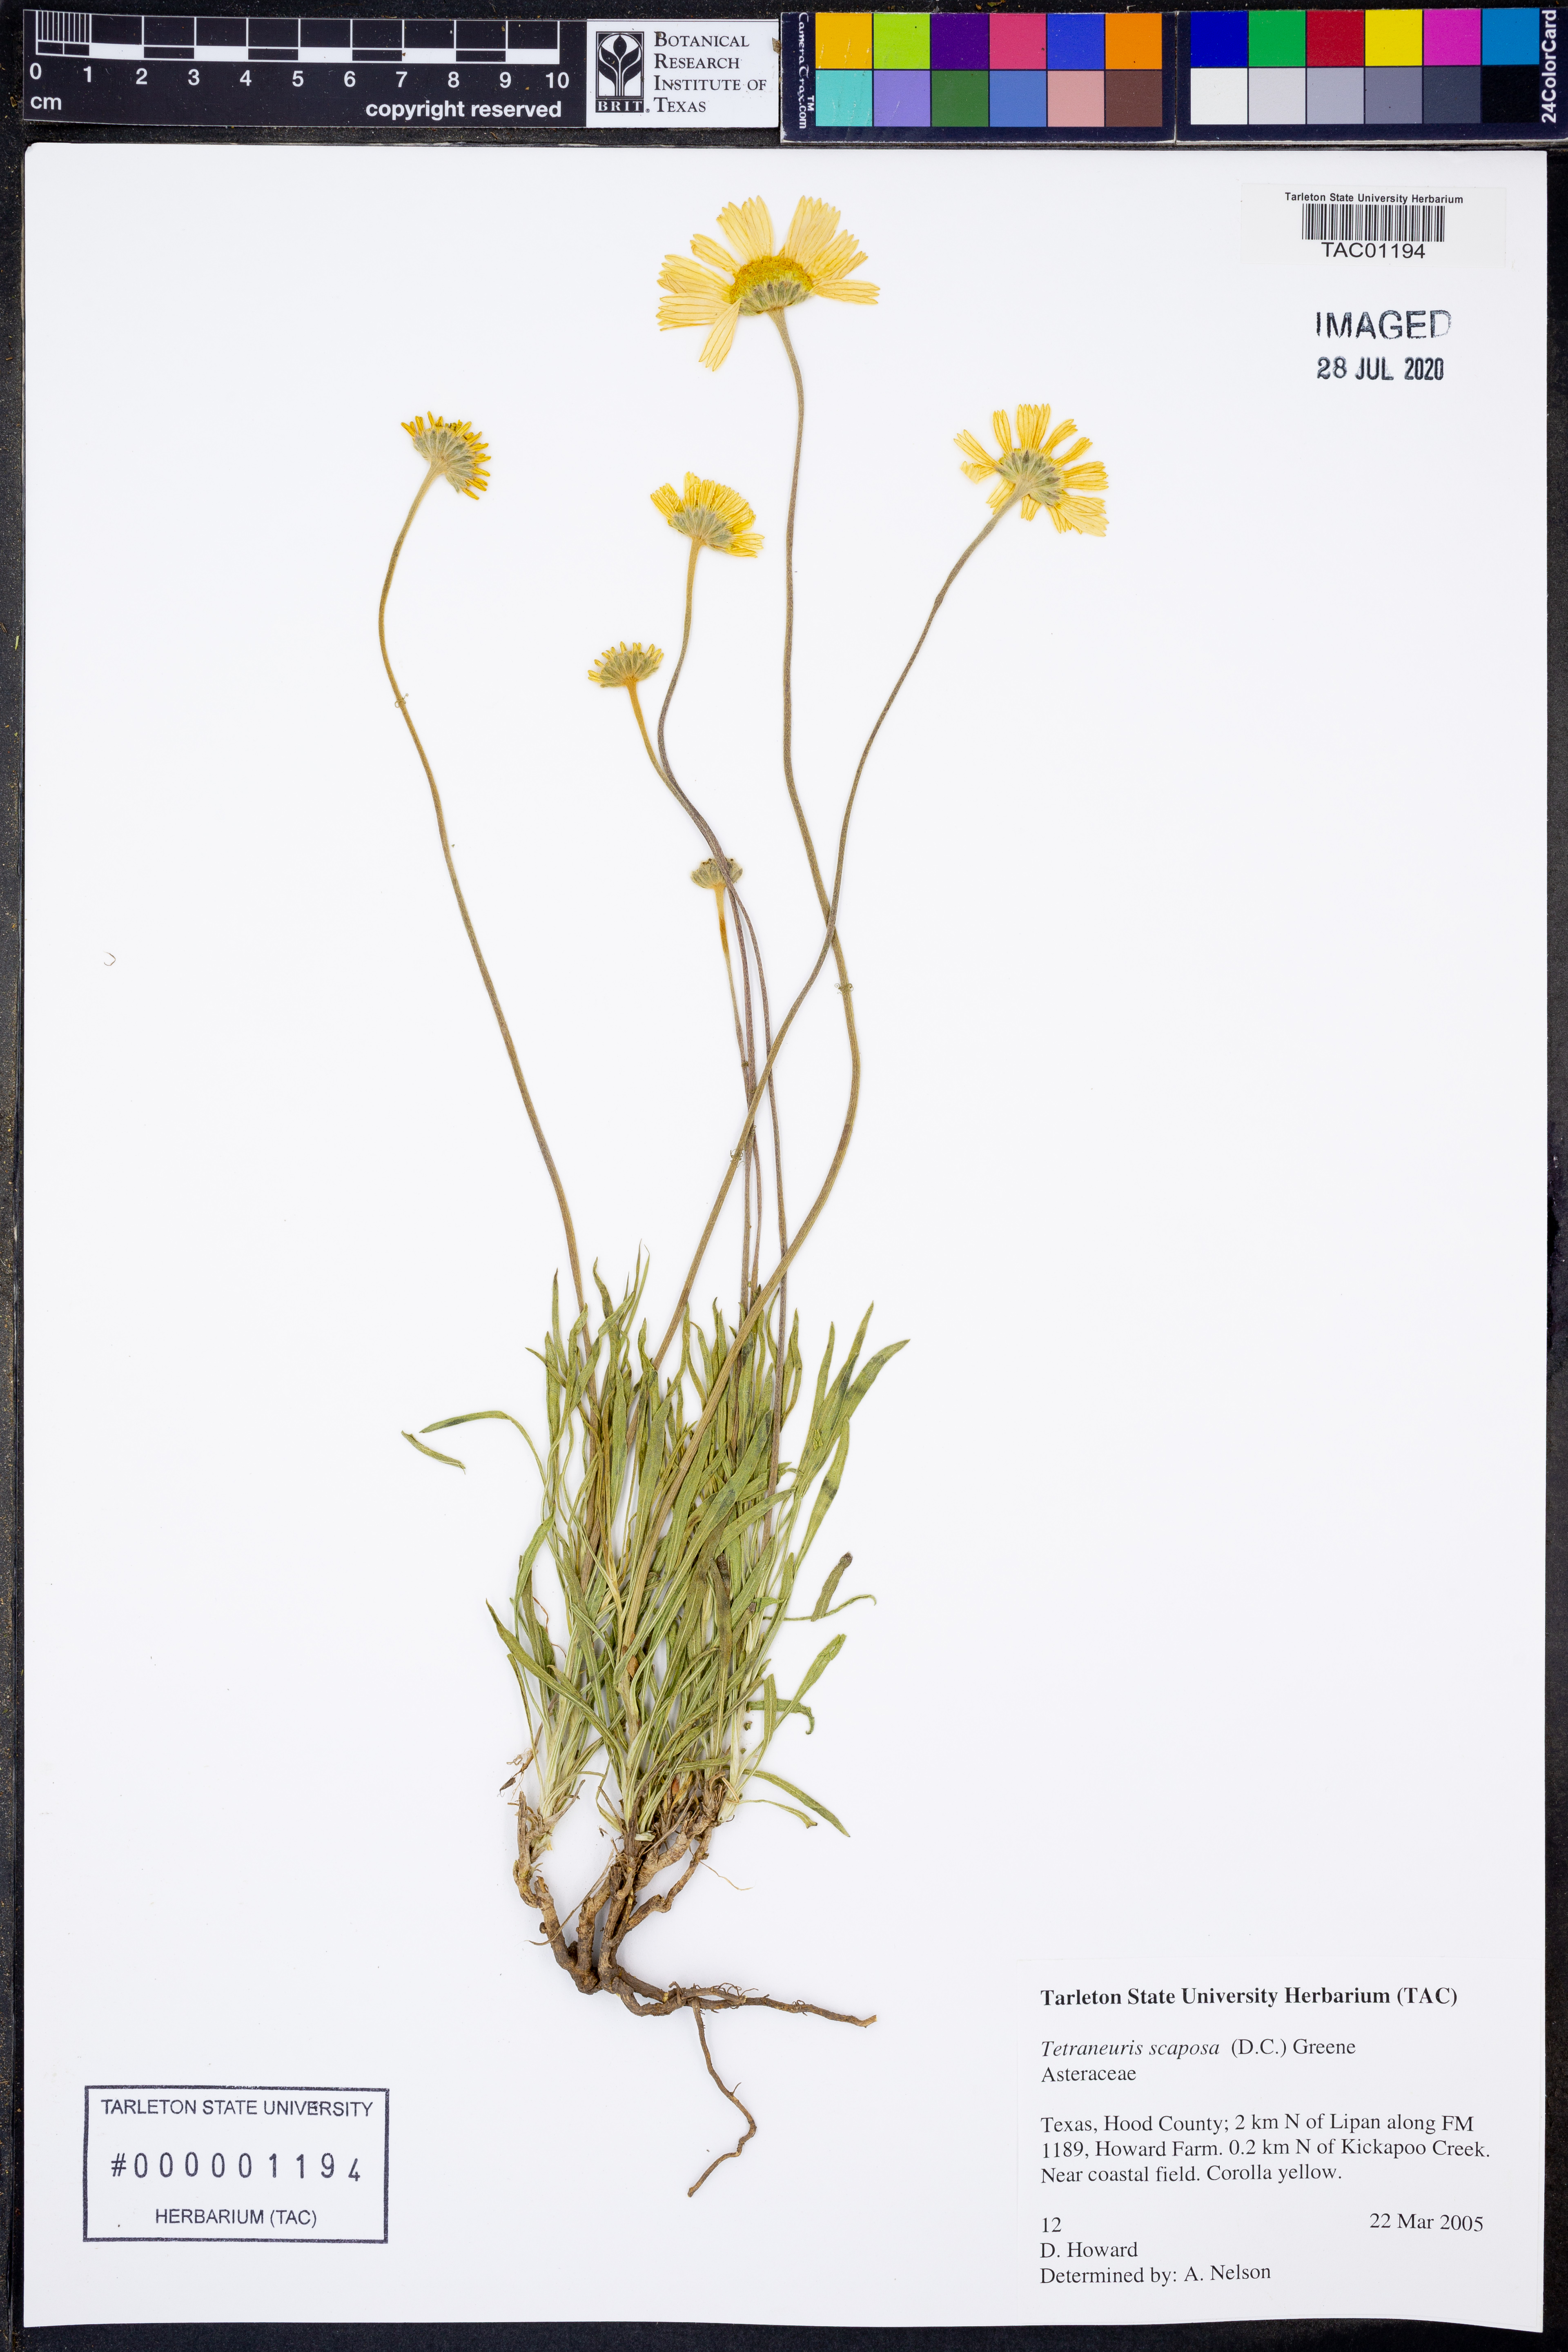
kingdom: Plantae
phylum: Tracheophyta
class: Magnoliopsida
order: Asterales
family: Asteraceae
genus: Tetraneuris
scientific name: Tetraneuris scaposa
